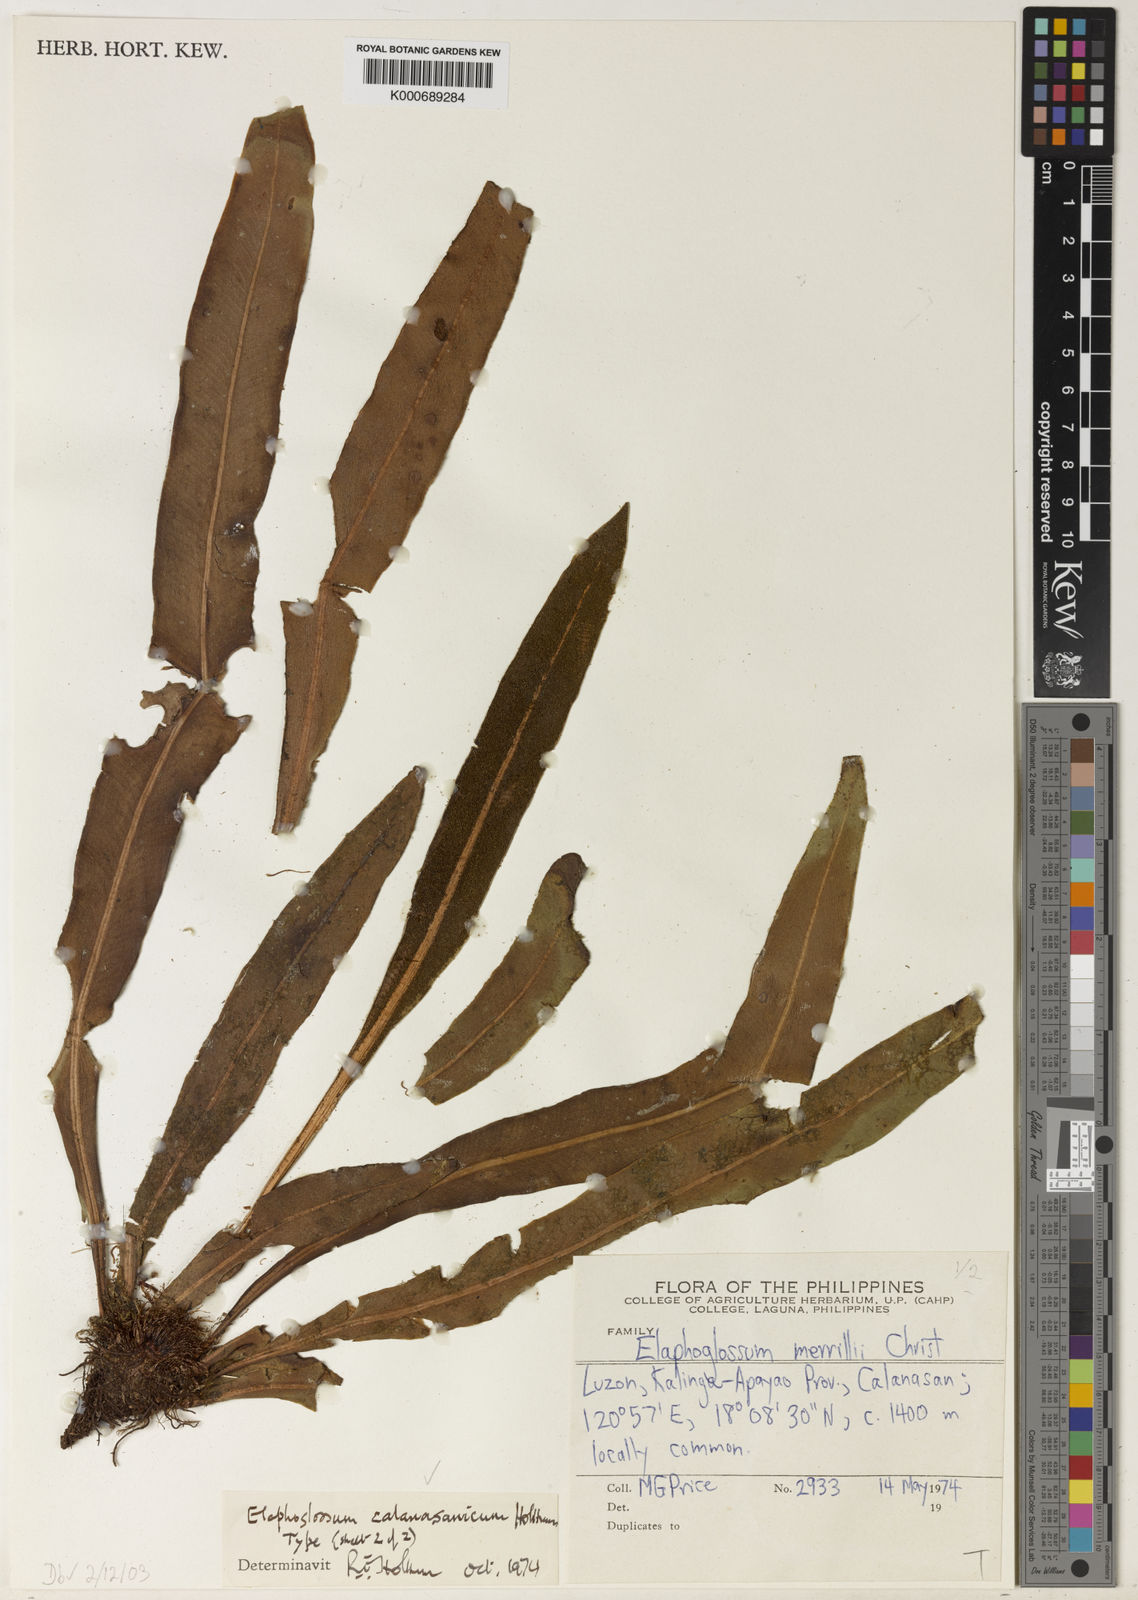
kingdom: Plantae
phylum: Tracheophyta
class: Polypodiopsida
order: Polypodiales
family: Dryopteridaceae
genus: Elaphoglossum
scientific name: Elaphoglossum calanasanicum
